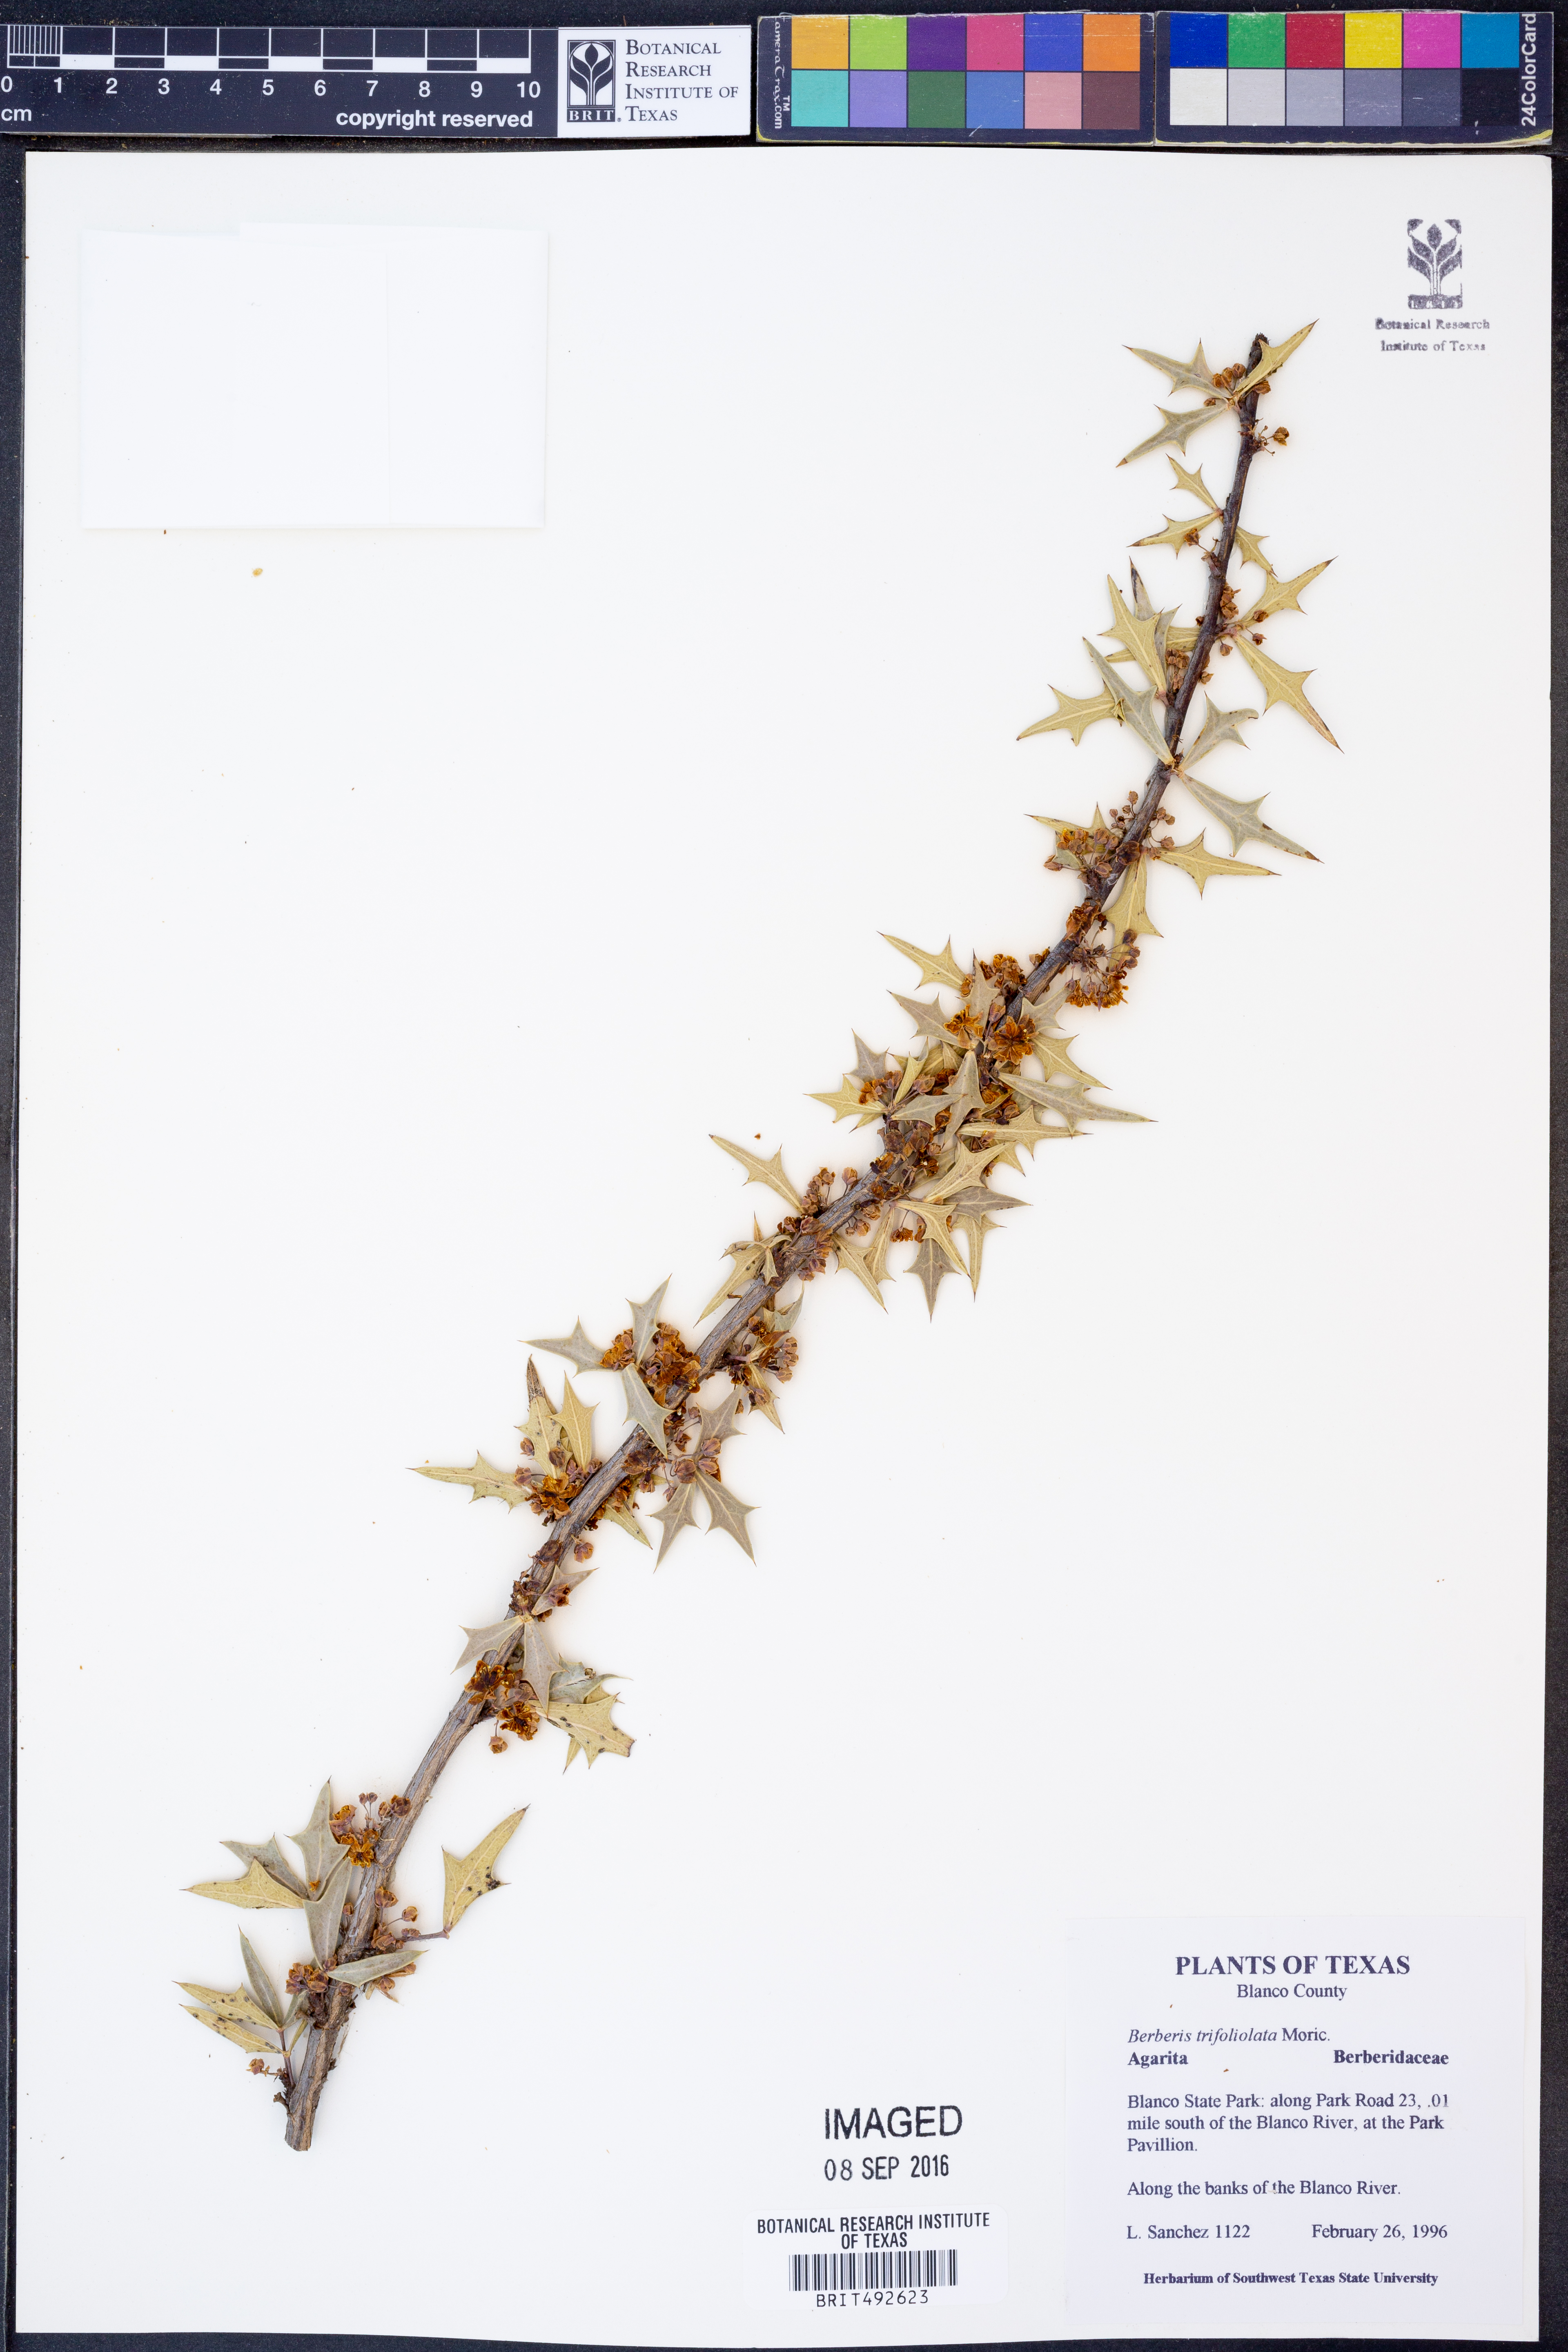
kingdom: Plantae
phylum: Tracheophyta
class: Magnoliopsida
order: Ranunculales
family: Berberidaceae
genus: Alloberberis
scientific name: Alloberberis trifoliolata
